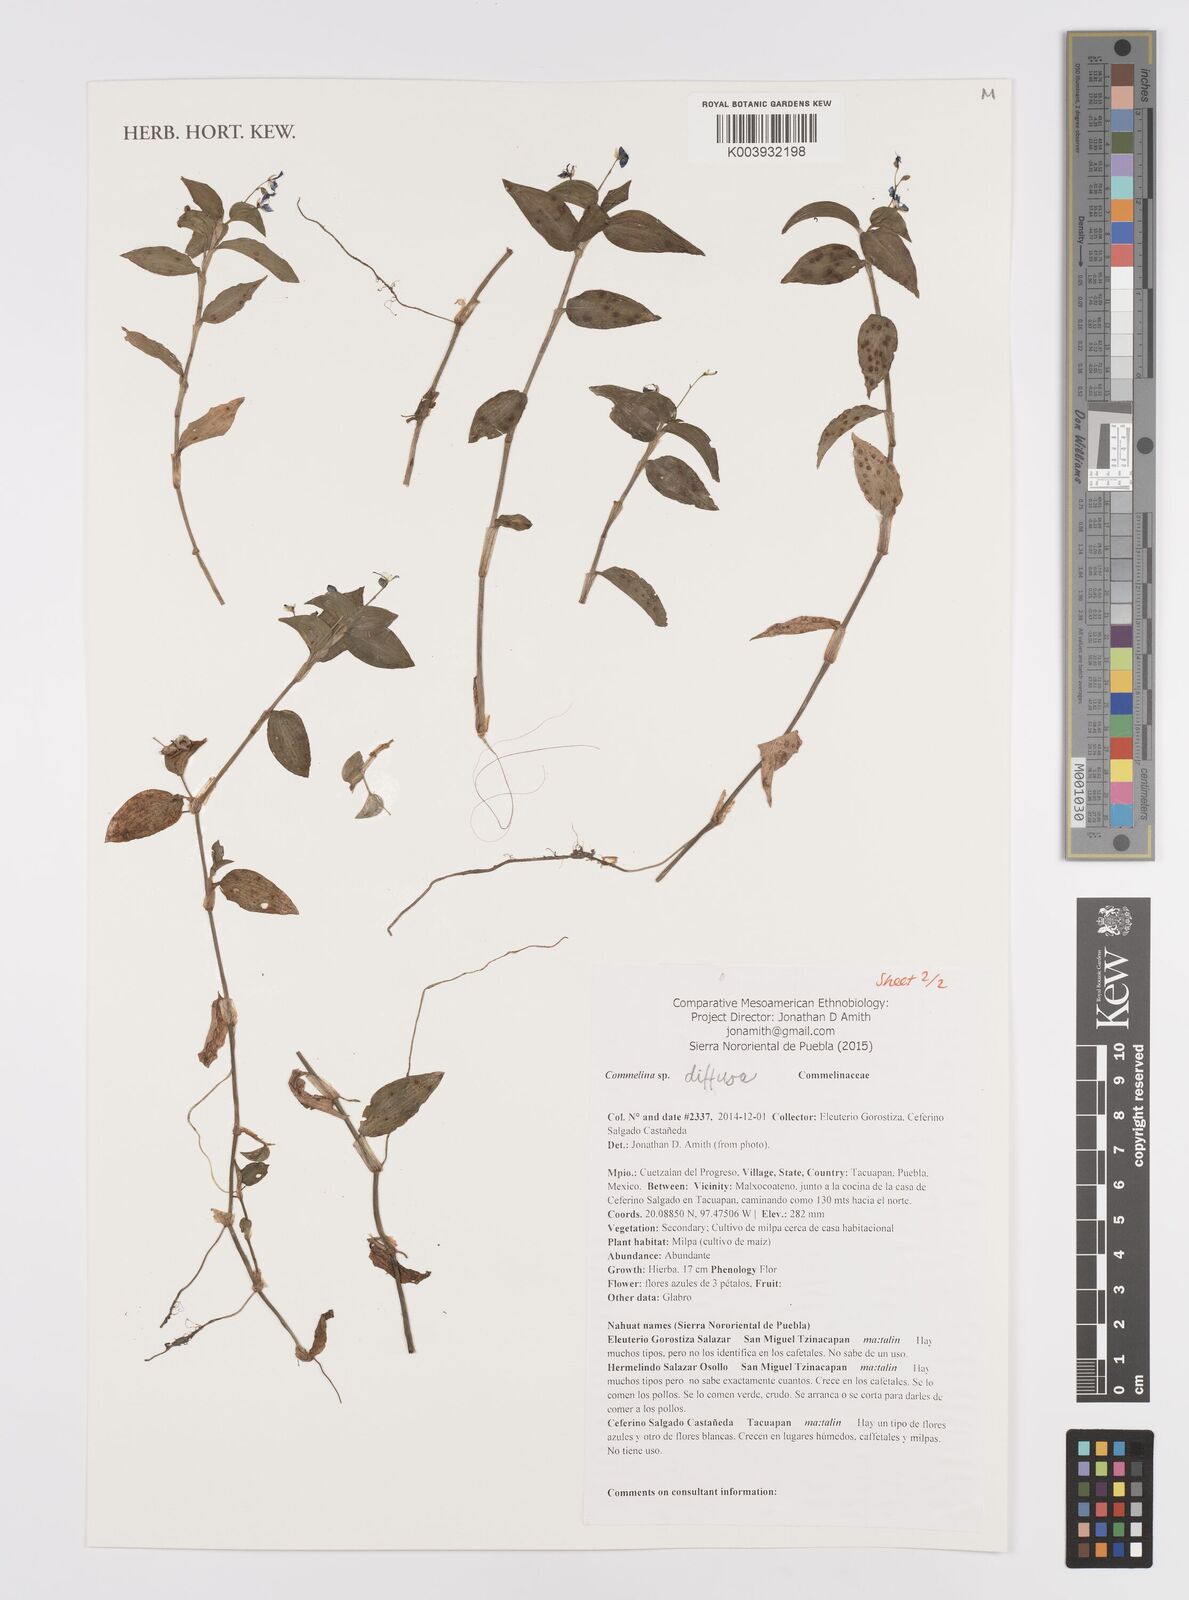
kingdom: Plantae
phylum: Tracheophyta
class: Liliopsida
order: Commelinales
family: Commelinaceae
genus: Commelina
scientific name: Commelina diffusa
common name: Climbing dayflower
